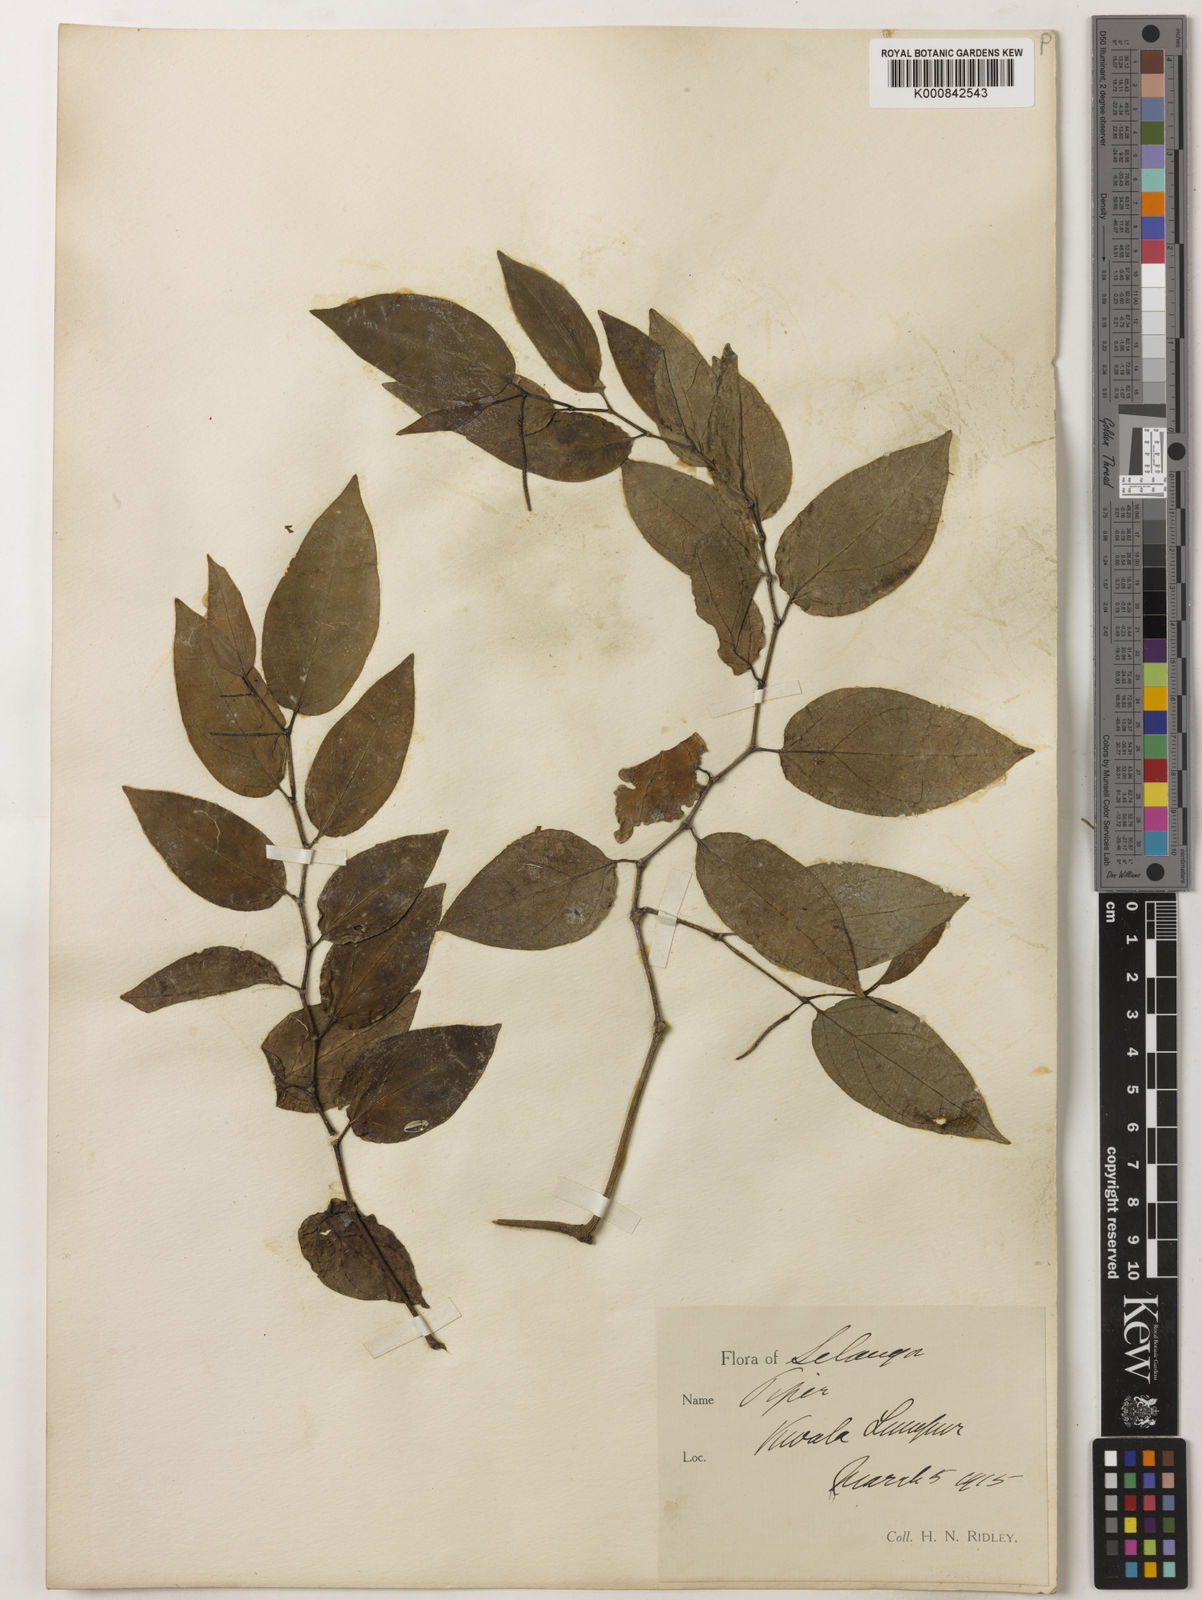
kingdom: Plantae
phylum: Tracheophyta
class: Magnoliopsida
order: Piperales
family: Piperaceae
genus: Piper
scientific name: Piper
